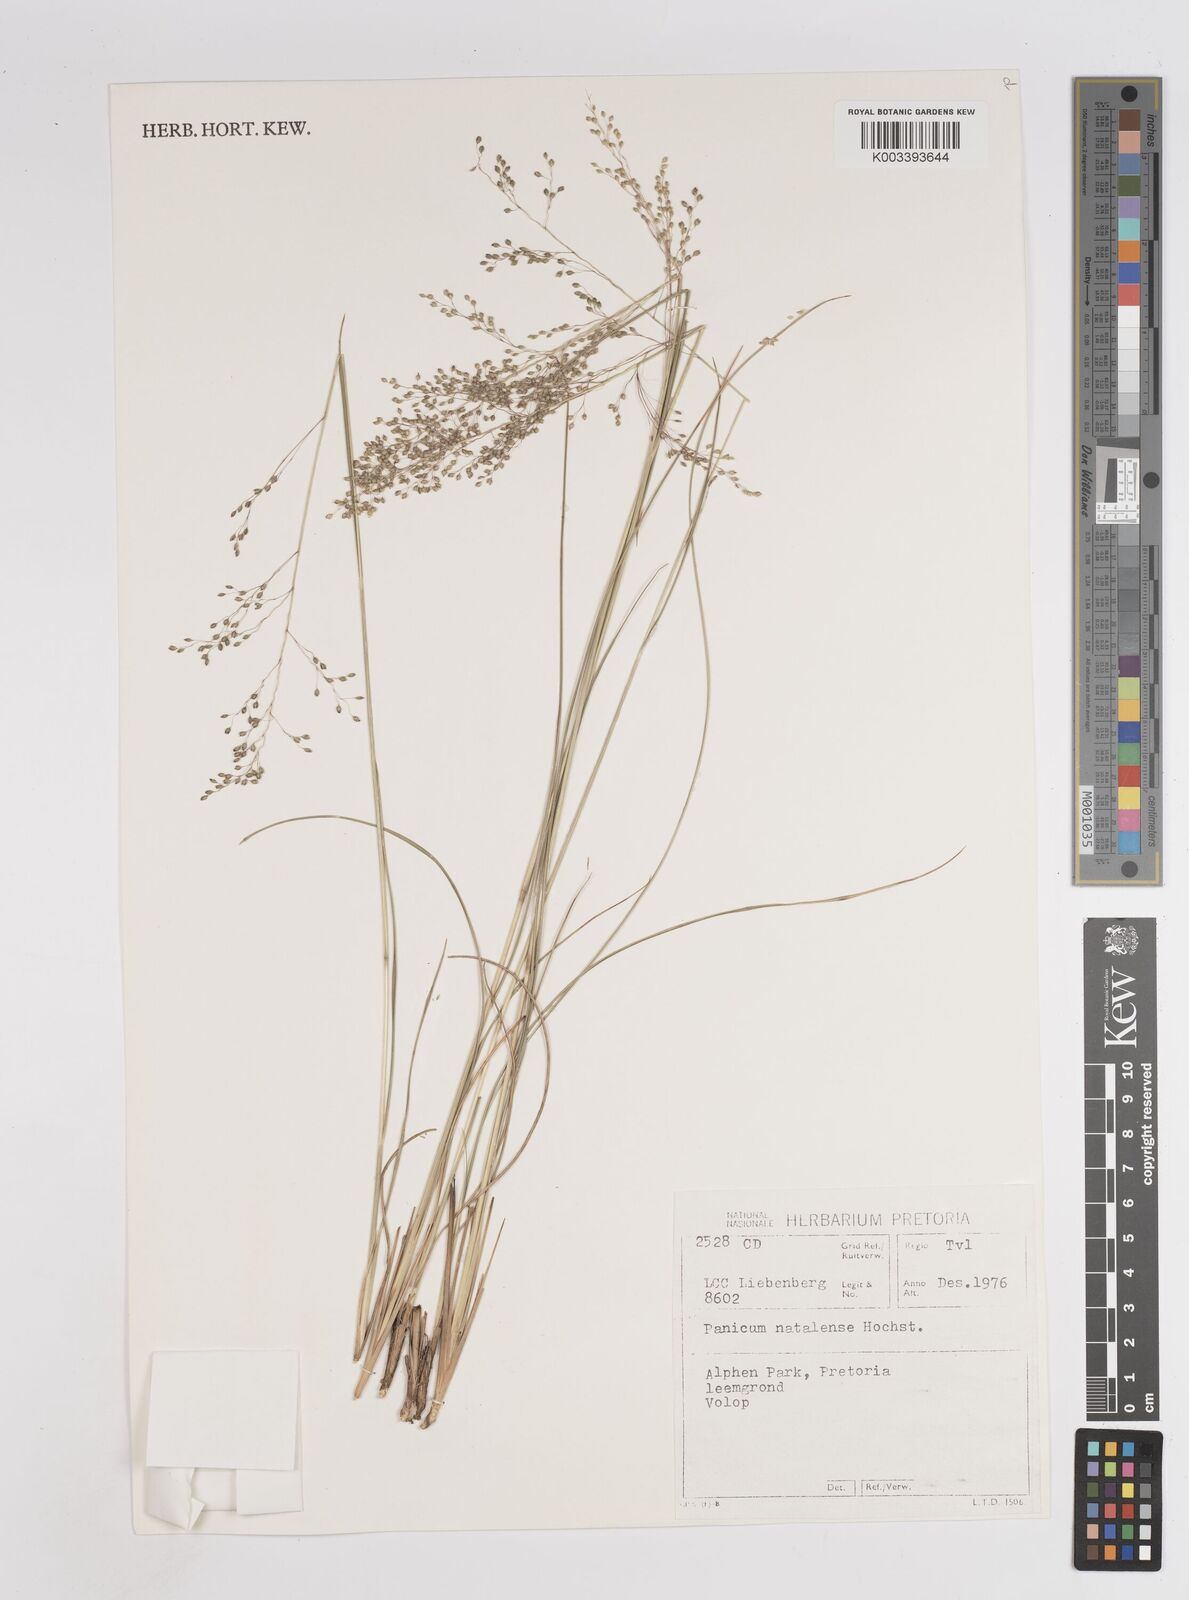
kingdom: Plantae
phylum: Tracheophyta
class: Liliopsida
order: Poales
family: Poaceae
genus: Trichanthecium
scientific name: Trichanthecium natalense
